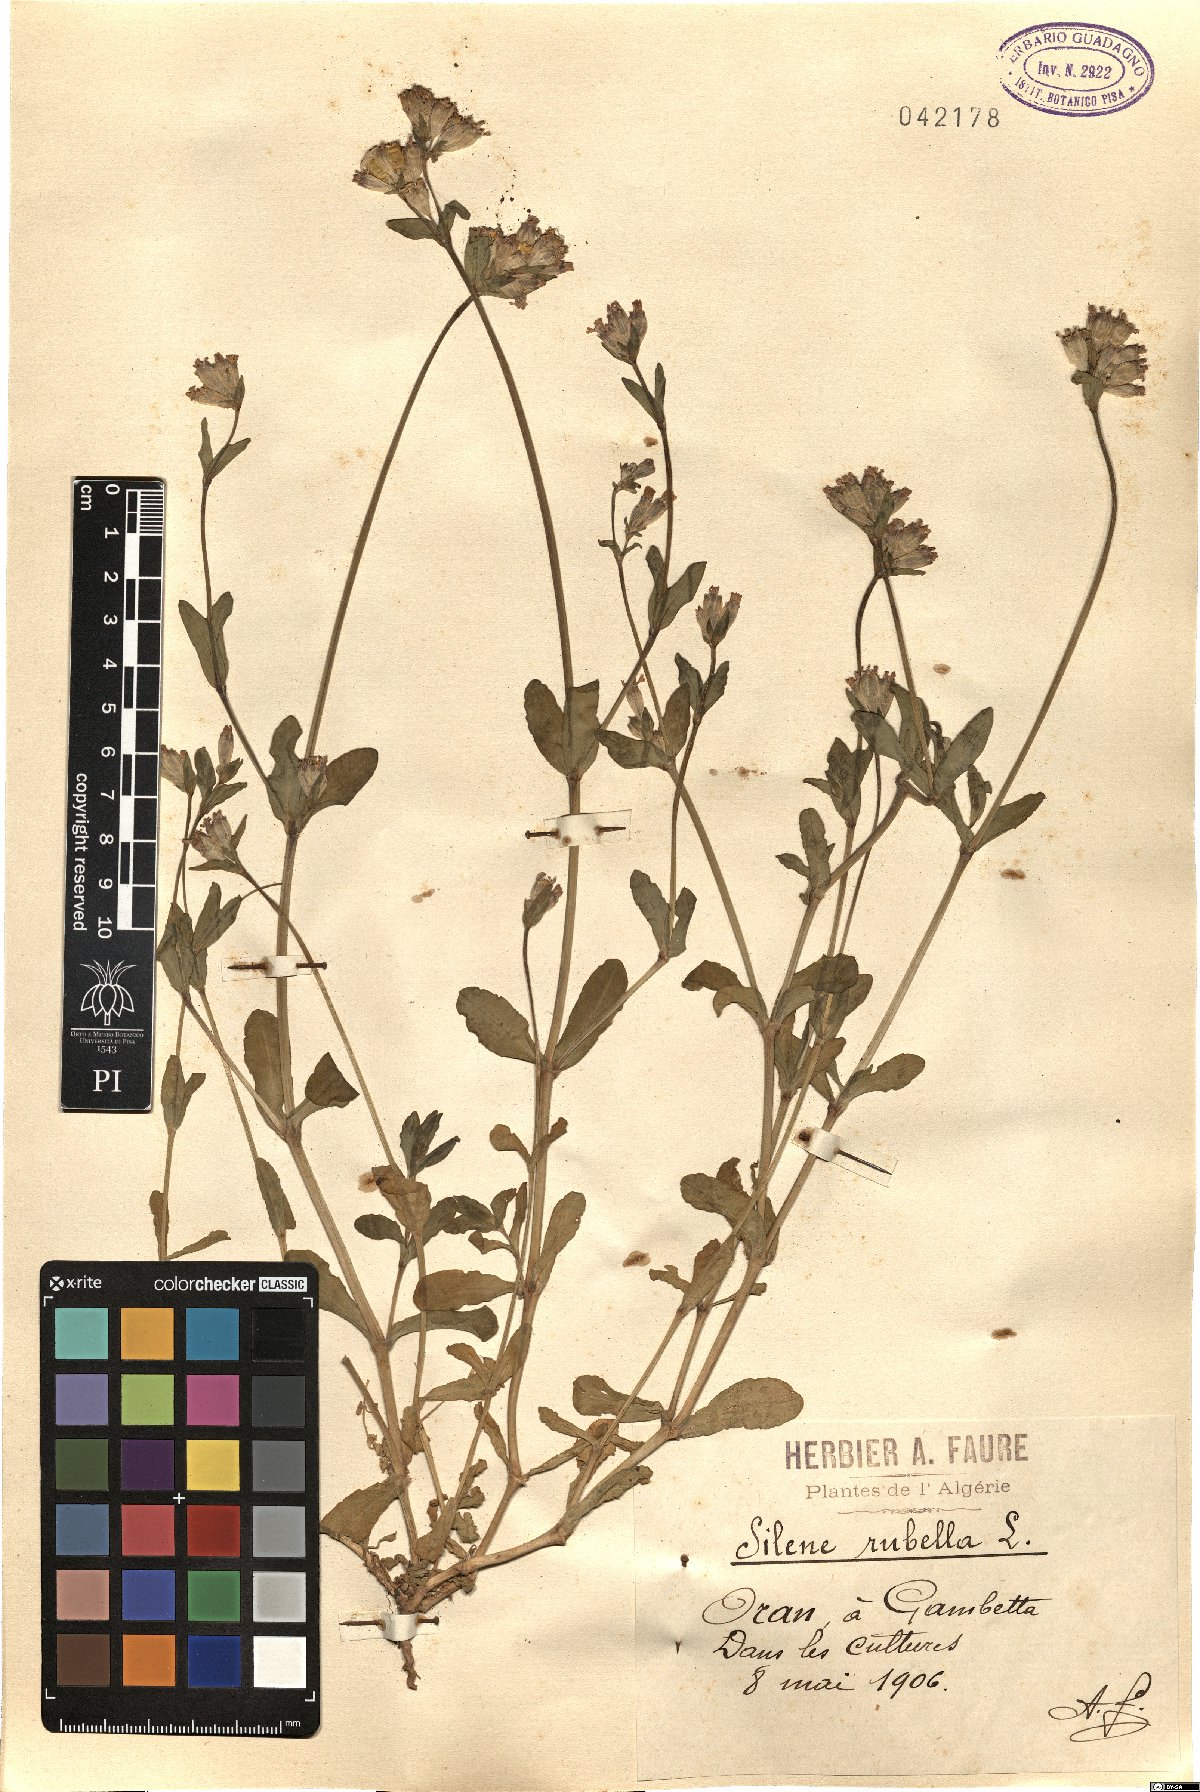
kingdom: Plantae
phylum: Tracheophyta
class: Magnoliopsida
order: Caryophyllales
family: Caryophyllaceae
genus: Silene
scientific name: Silene rubella
